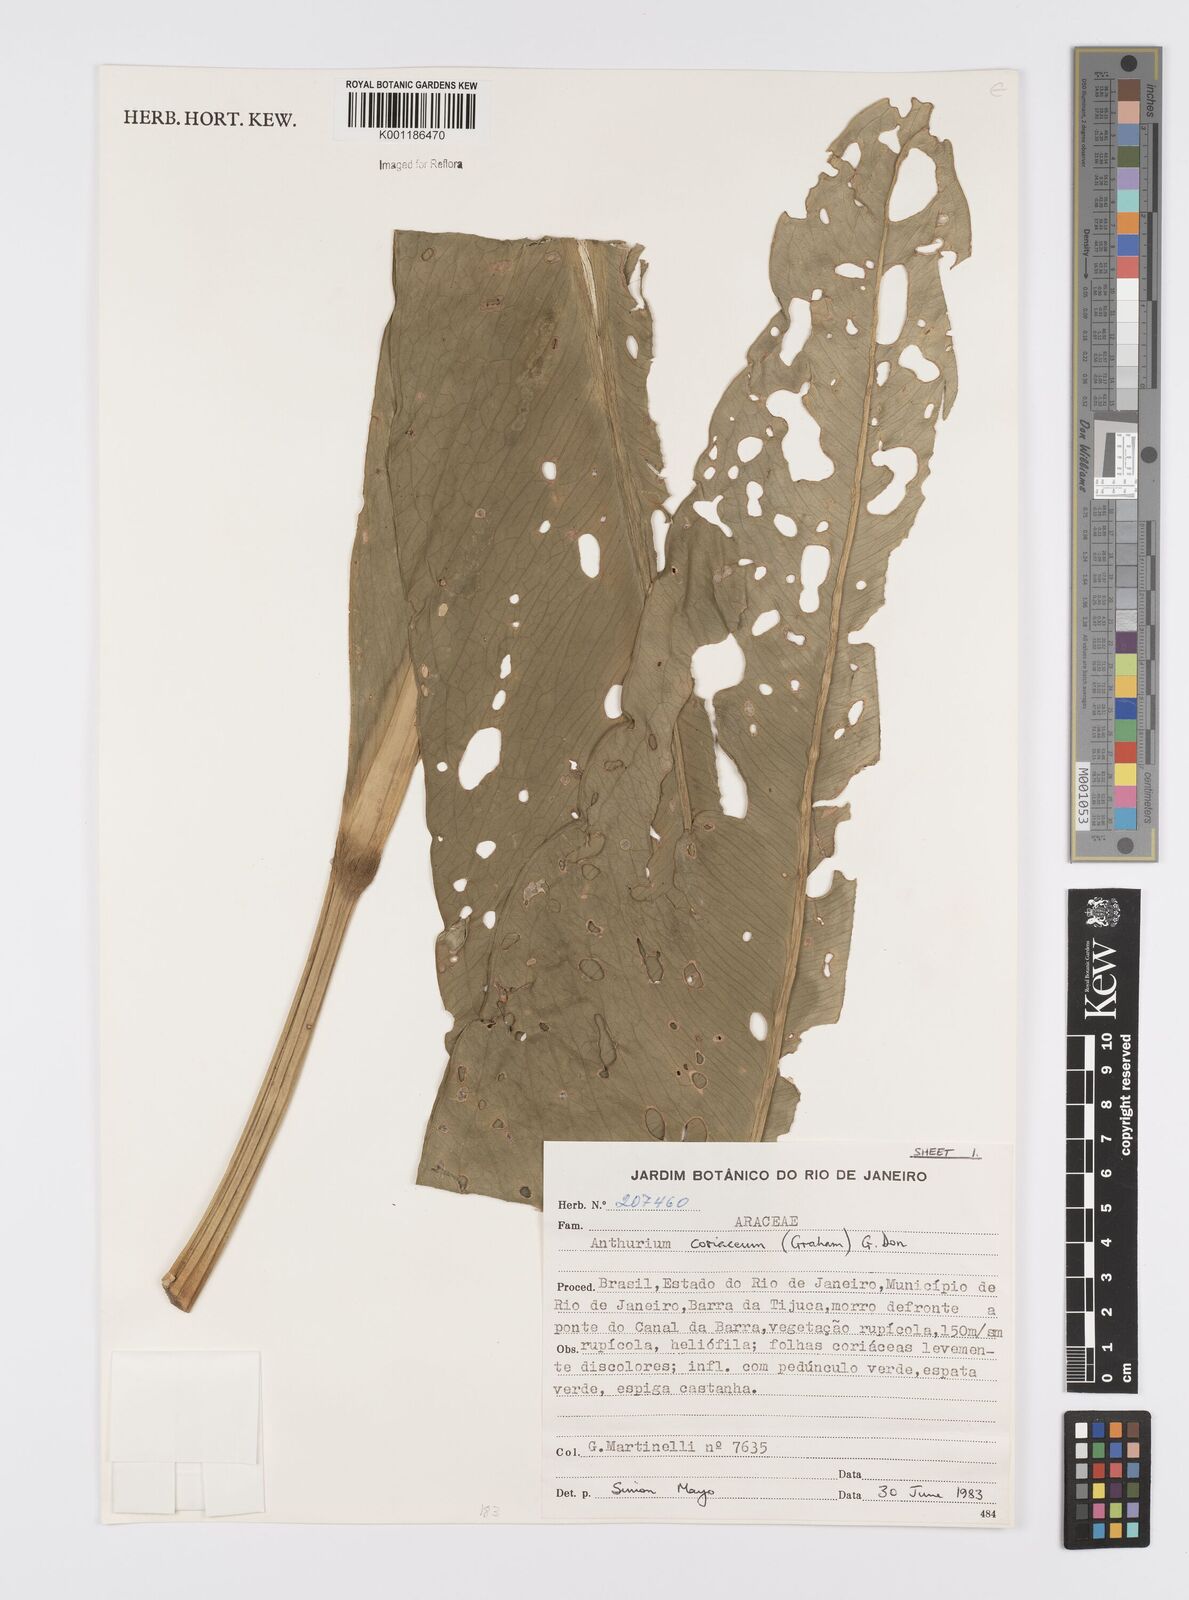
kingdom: Plantae
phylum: Tracheophyta
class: Liliopsida
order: Alismatales
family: Araceae
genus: Anthurium
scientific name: Anthurium coriaceum
